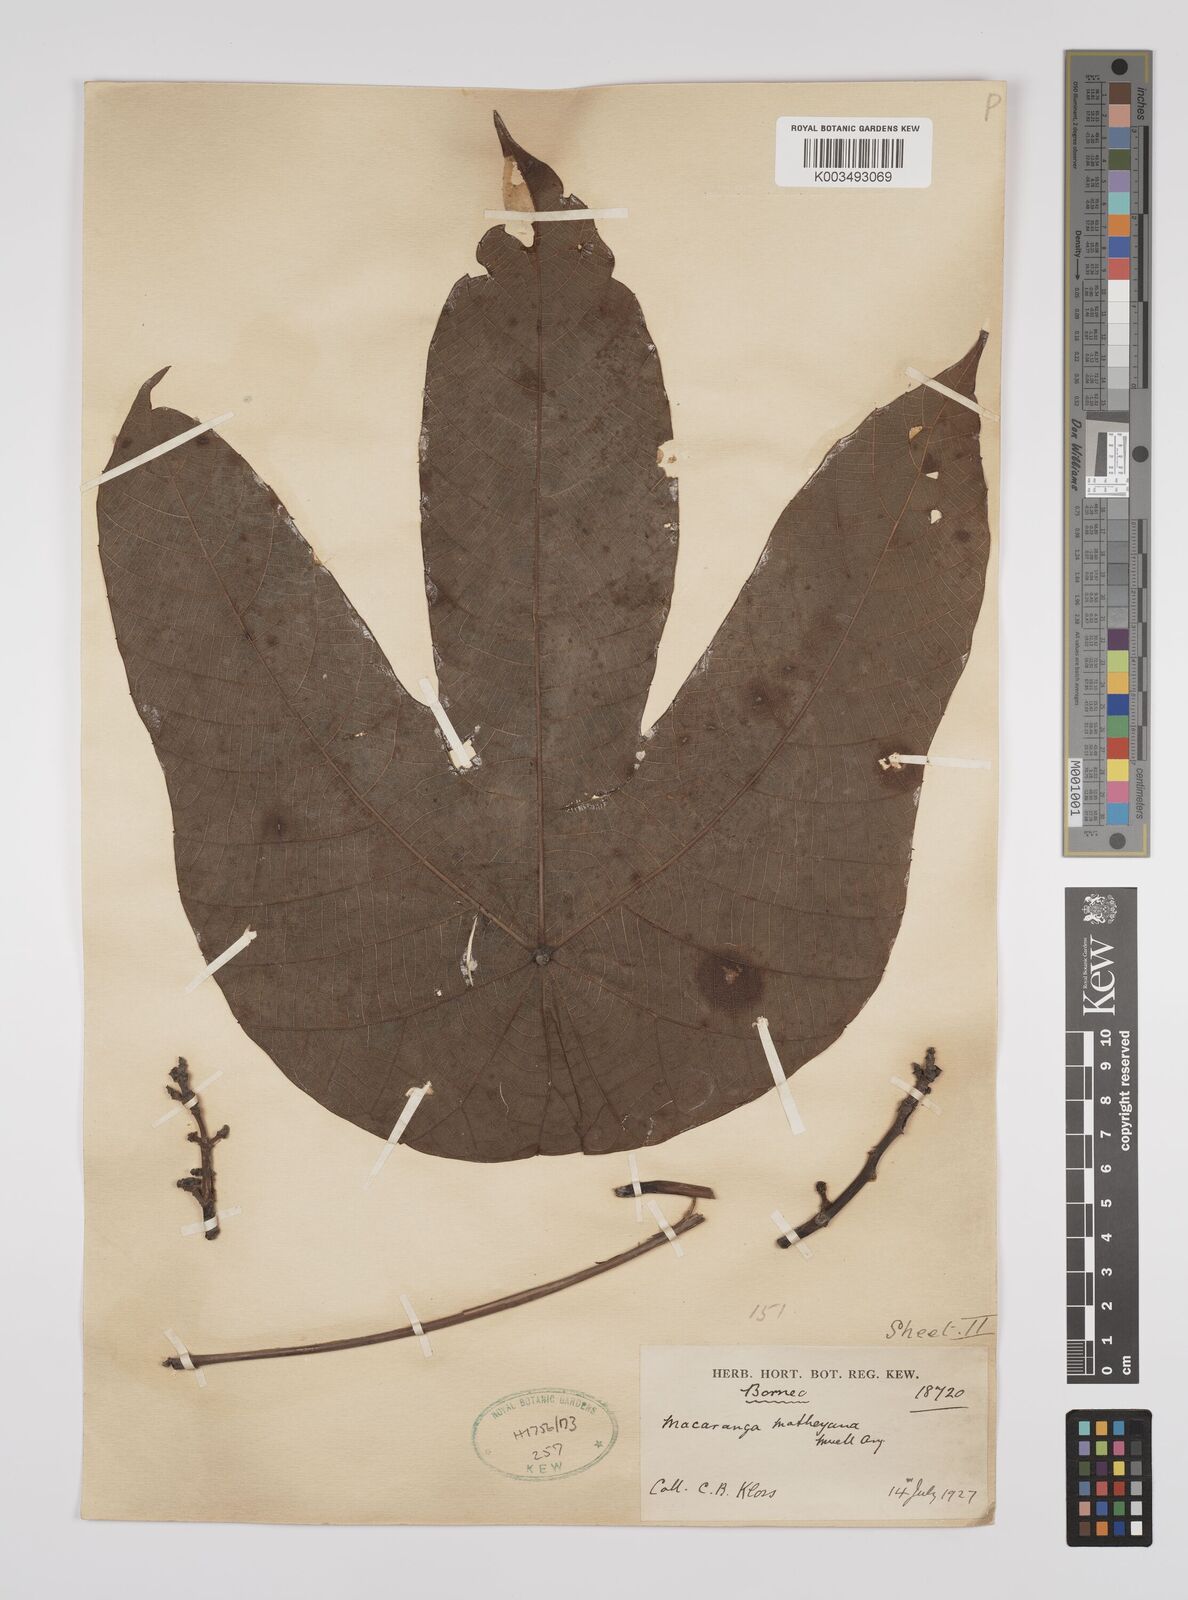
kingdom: Plantae
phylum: Tracheophyta
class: Magnoliopsida
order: Malpighiales
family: Euphorbiaceae
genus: Macaranga
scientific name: Macaranga motleyana
